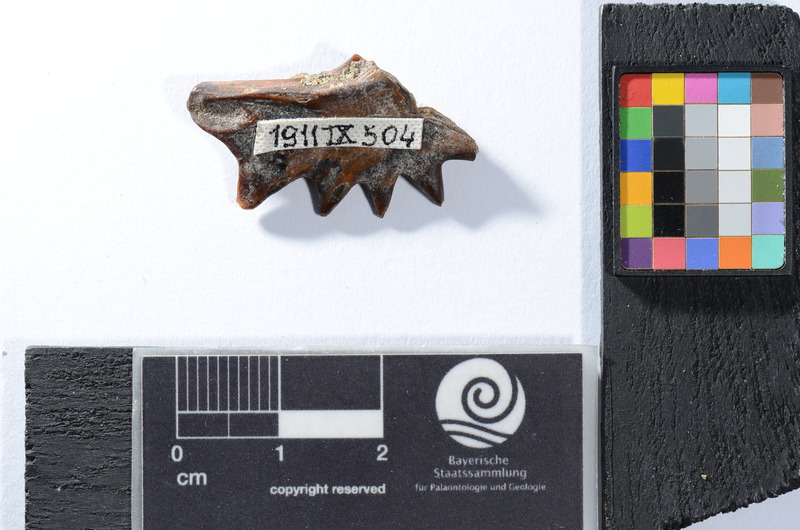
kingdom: Animalia
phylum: Chordata
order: Perciformes
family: Latidae
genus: Lates
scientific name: Lates niloticus
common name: Nile perch
